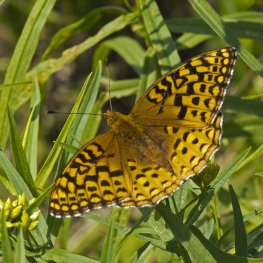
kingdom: Animalia
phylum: Arthropoda
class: Insecta
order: Lepidoptera
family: Nymphalidae
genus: Speyeria
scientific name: Speyeria aphrodite
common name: Aphrodite Fritillary
